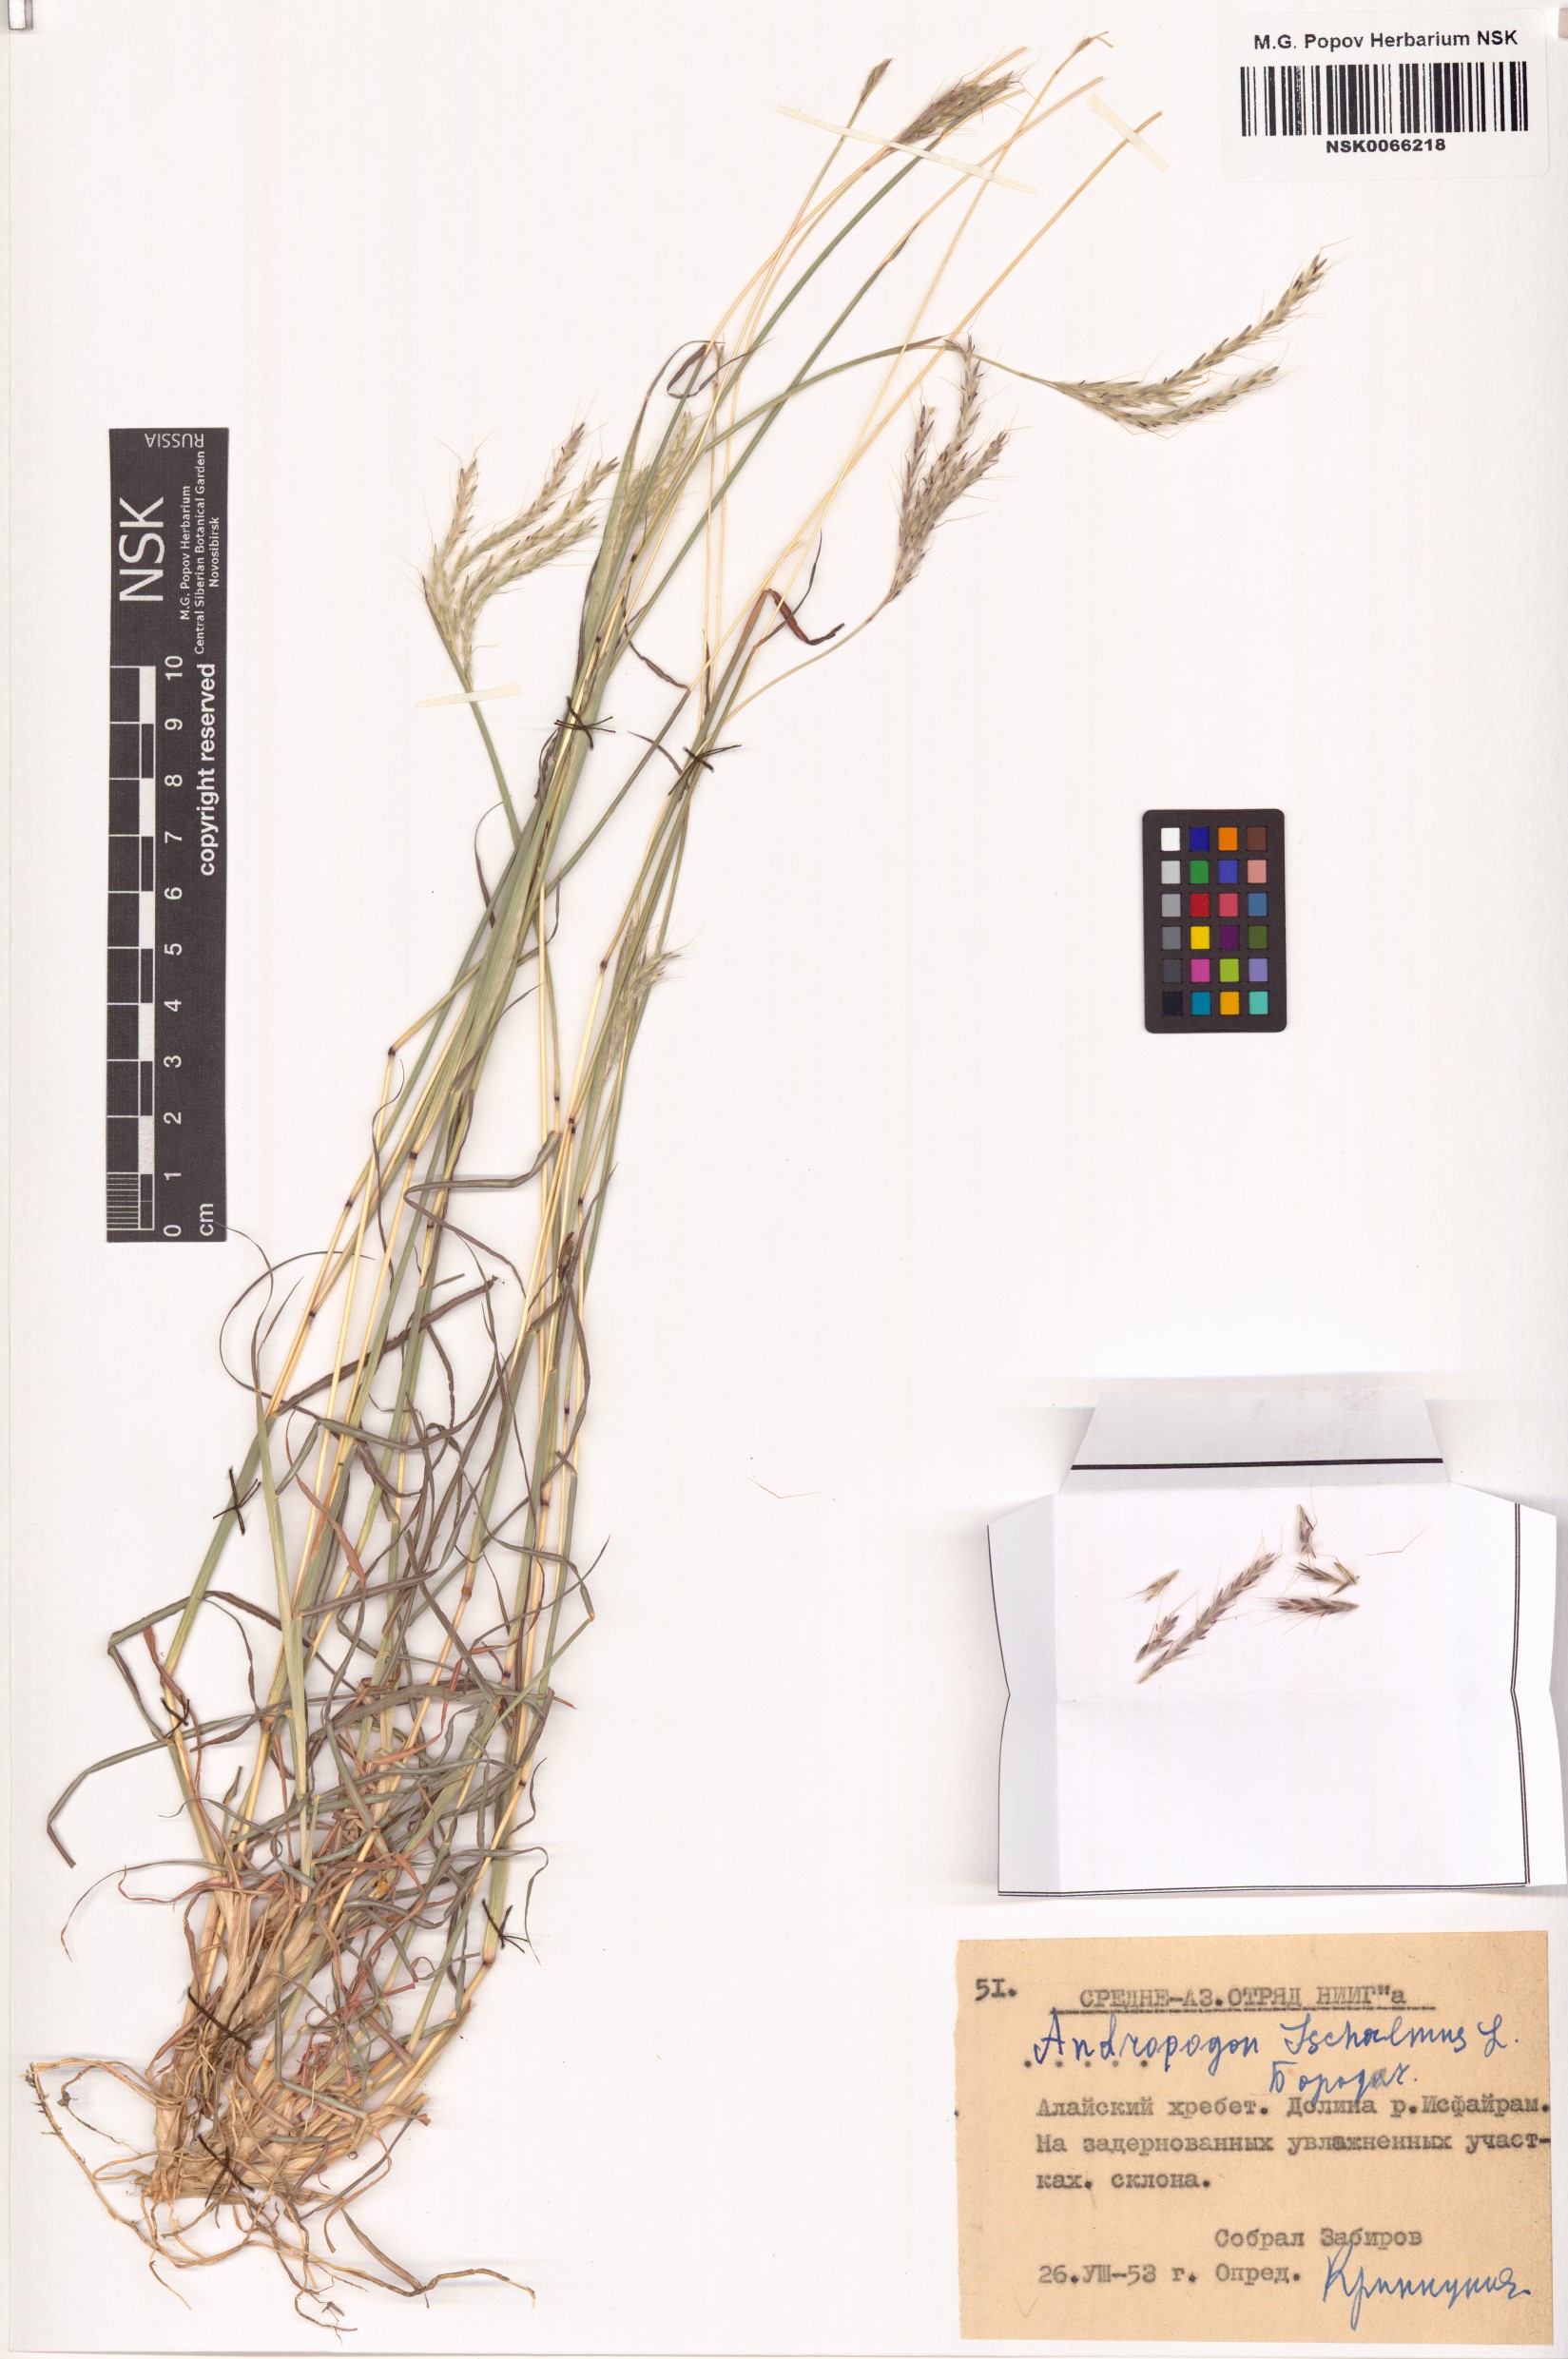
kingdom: Plantae
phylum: Tracheophyta
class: Liliopsida
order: Poales
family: Poaceae
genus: Bothriochloa
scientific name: Bothriochloa ischaemum
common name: Yellow bluestem
